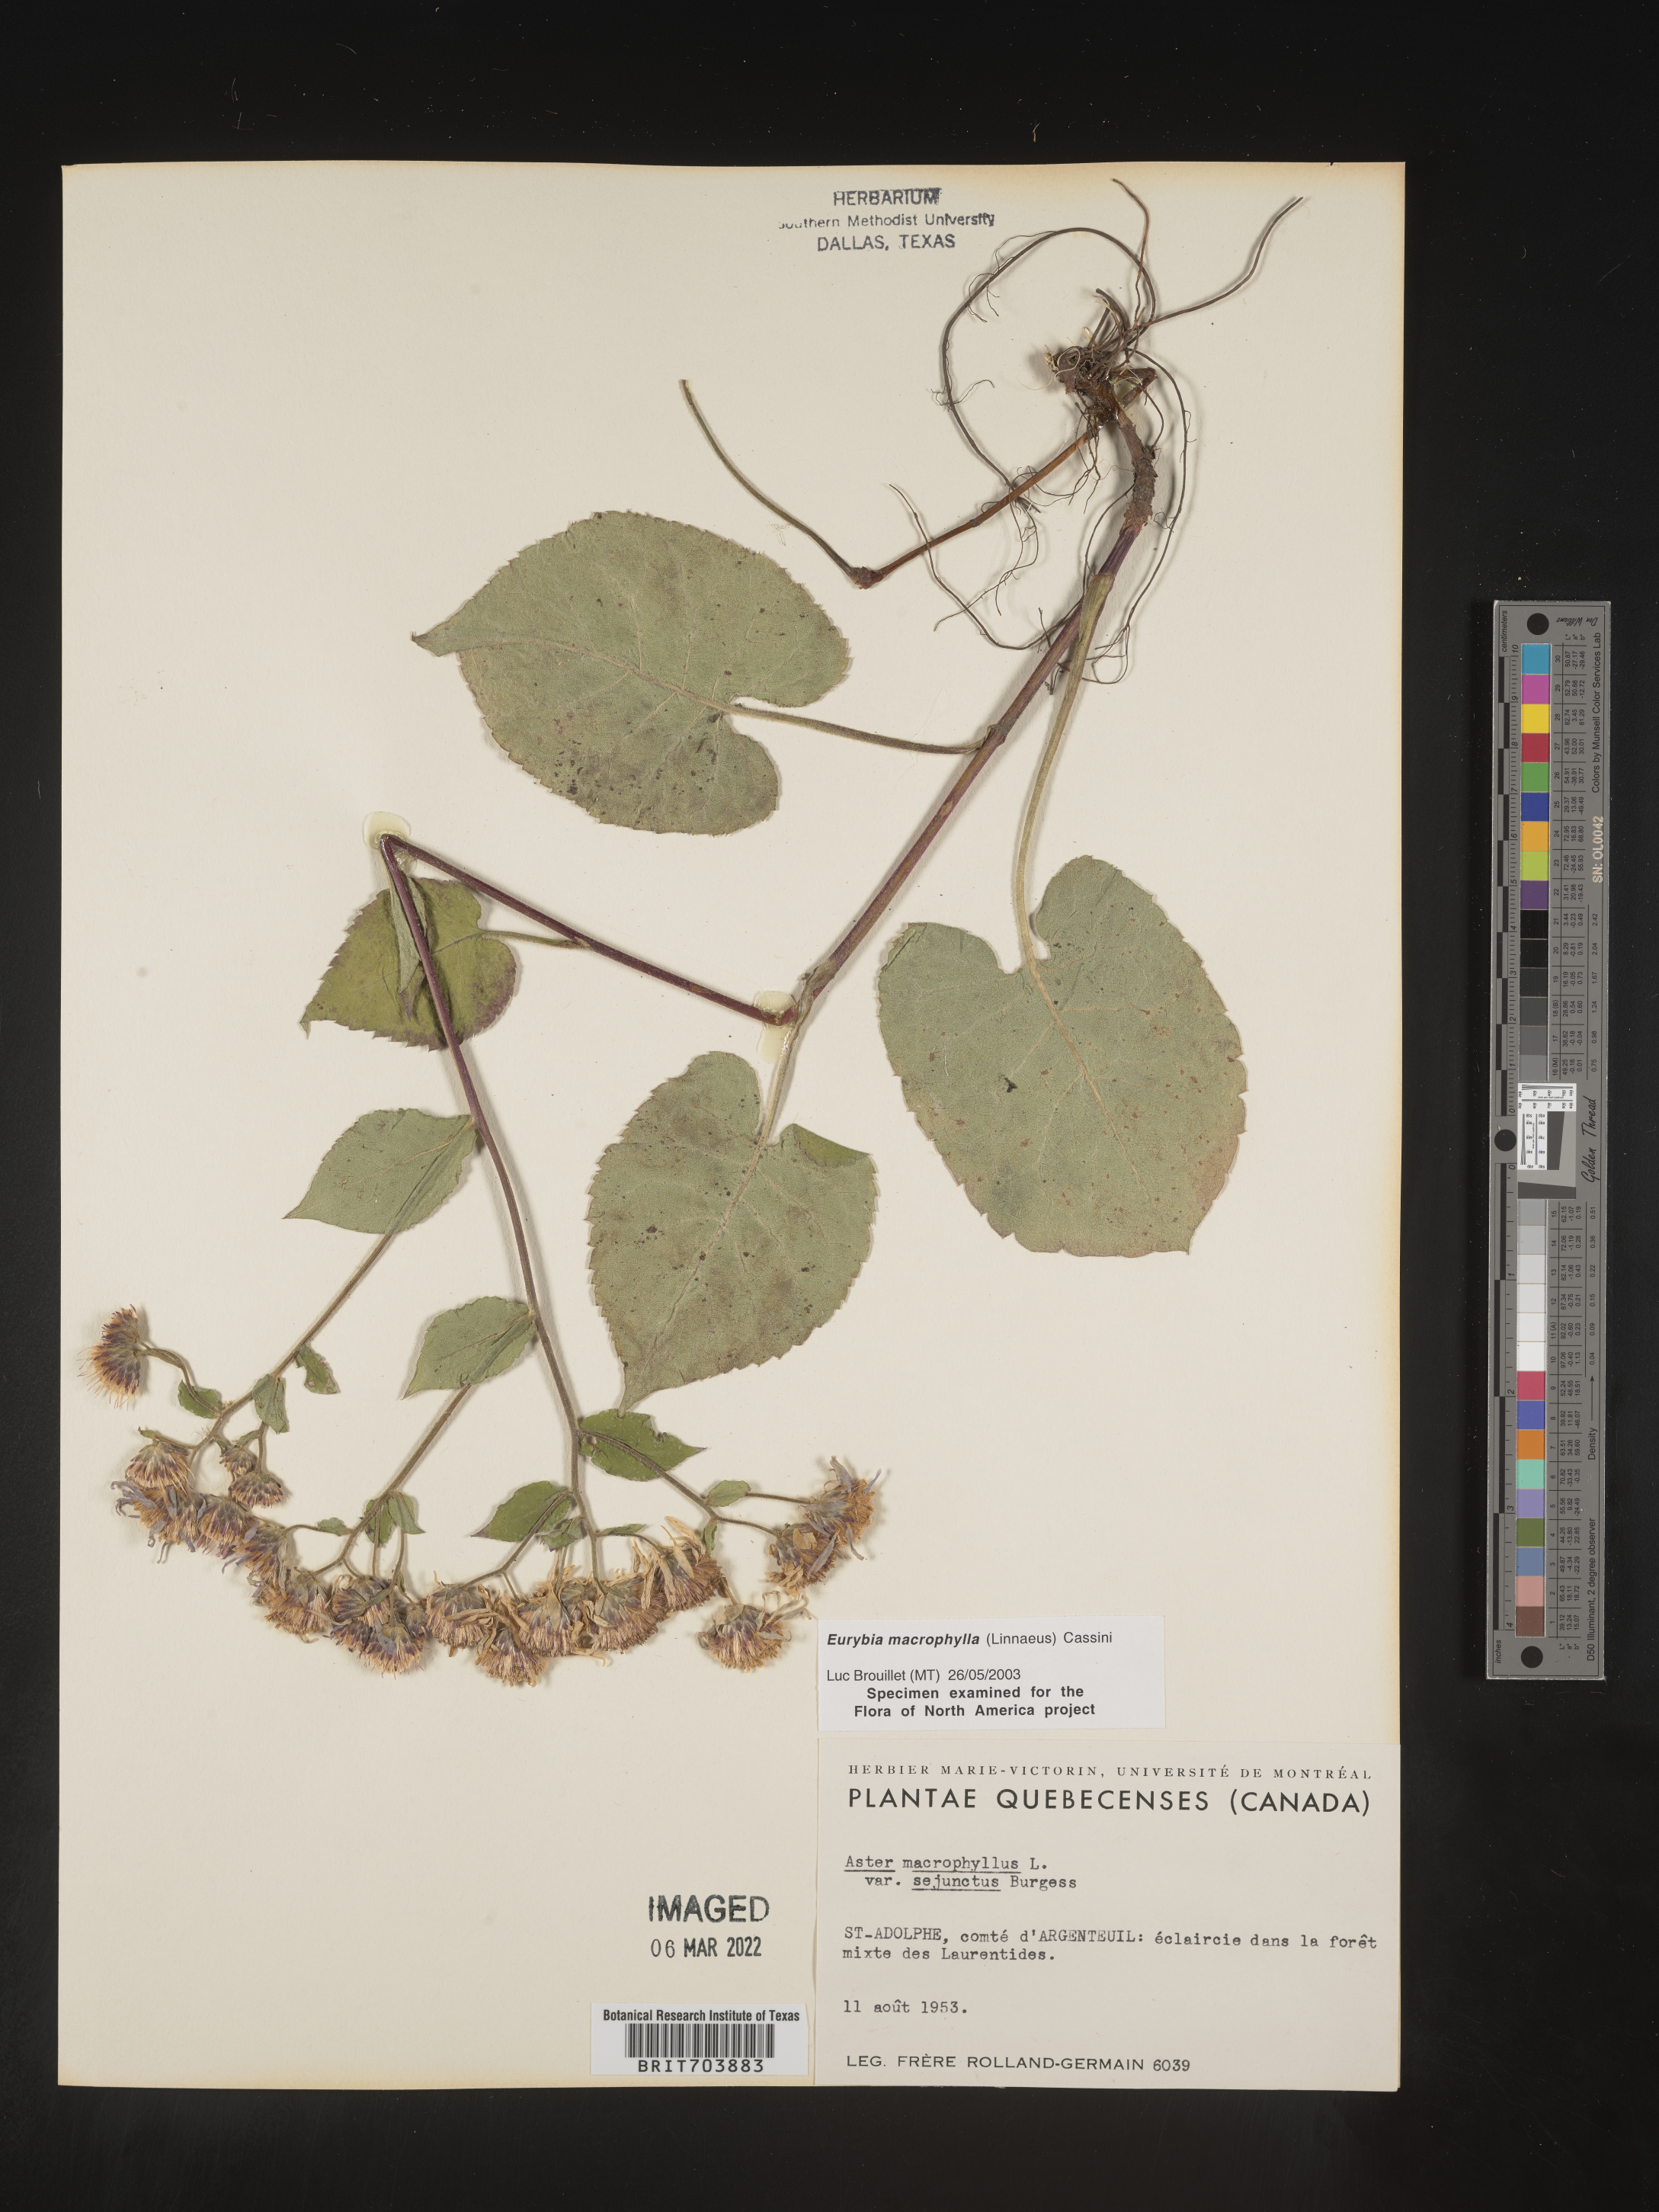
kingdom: Plantae
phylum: Tracheophyta
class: Magnoliopsida
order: Asterales
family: Asteraceae
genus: Eurybia
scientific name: Eurybia macrophylla
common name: Big-leaved aster
